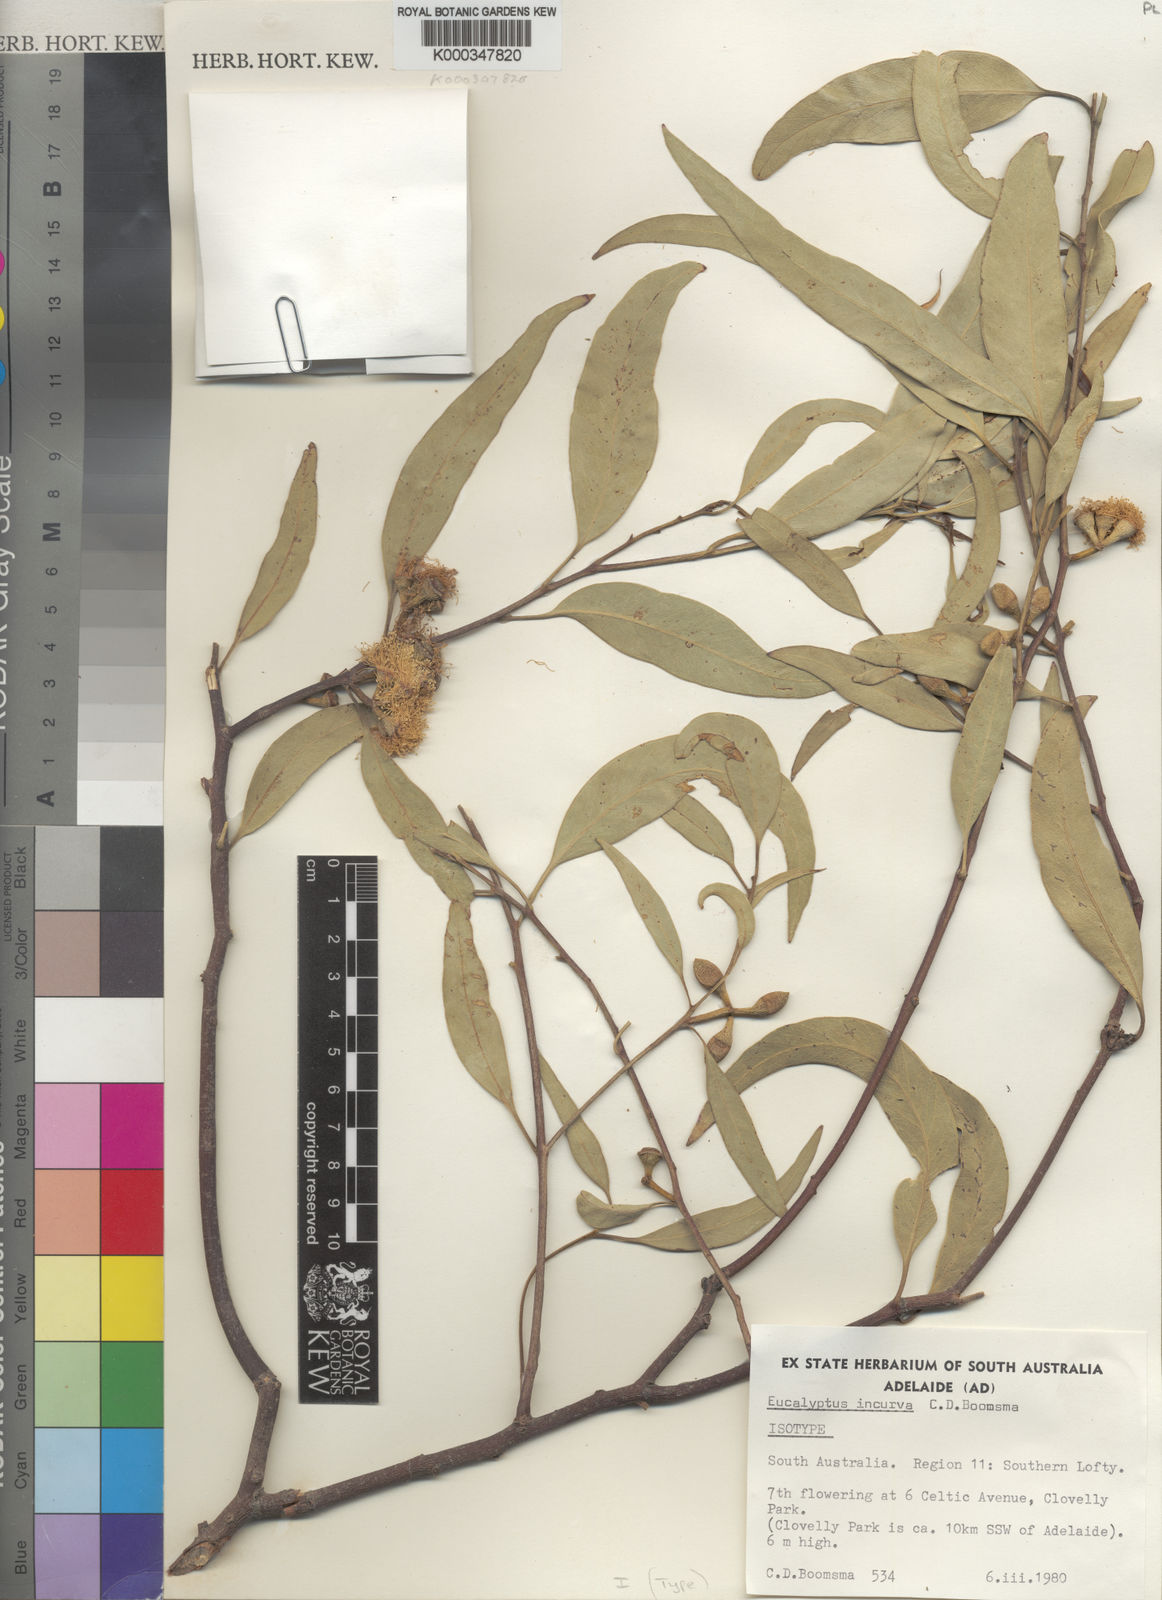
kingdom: Plantae
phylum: Tracheophyta
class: Magnoliopsida
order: Myrtales
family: Myrtaceae
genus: Eucalyptus
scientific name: Eucalyptus gillenii
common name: Mallee red gum
